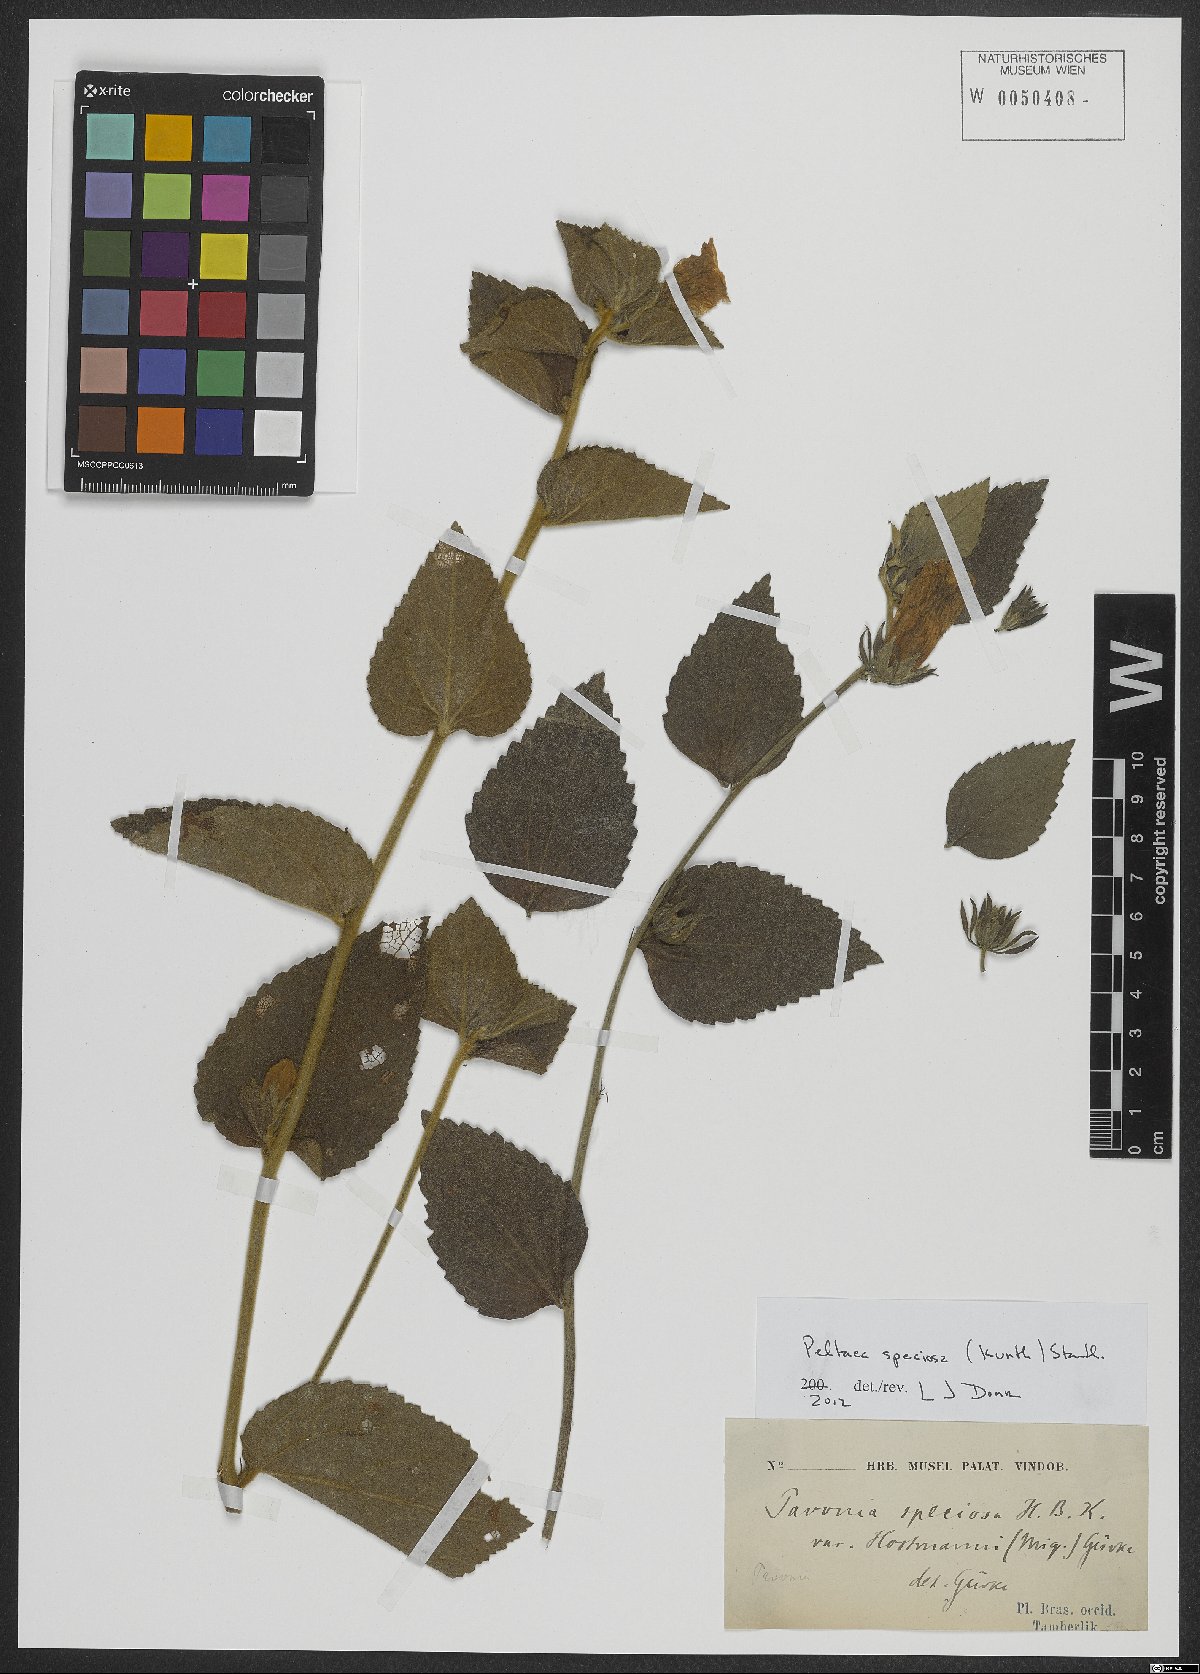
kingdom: Plantae
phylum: Tracheophyta
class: Magnoliopsida
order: Malvales
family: Malvaceae
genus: Peltaea
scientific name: Peltaea speciosa
